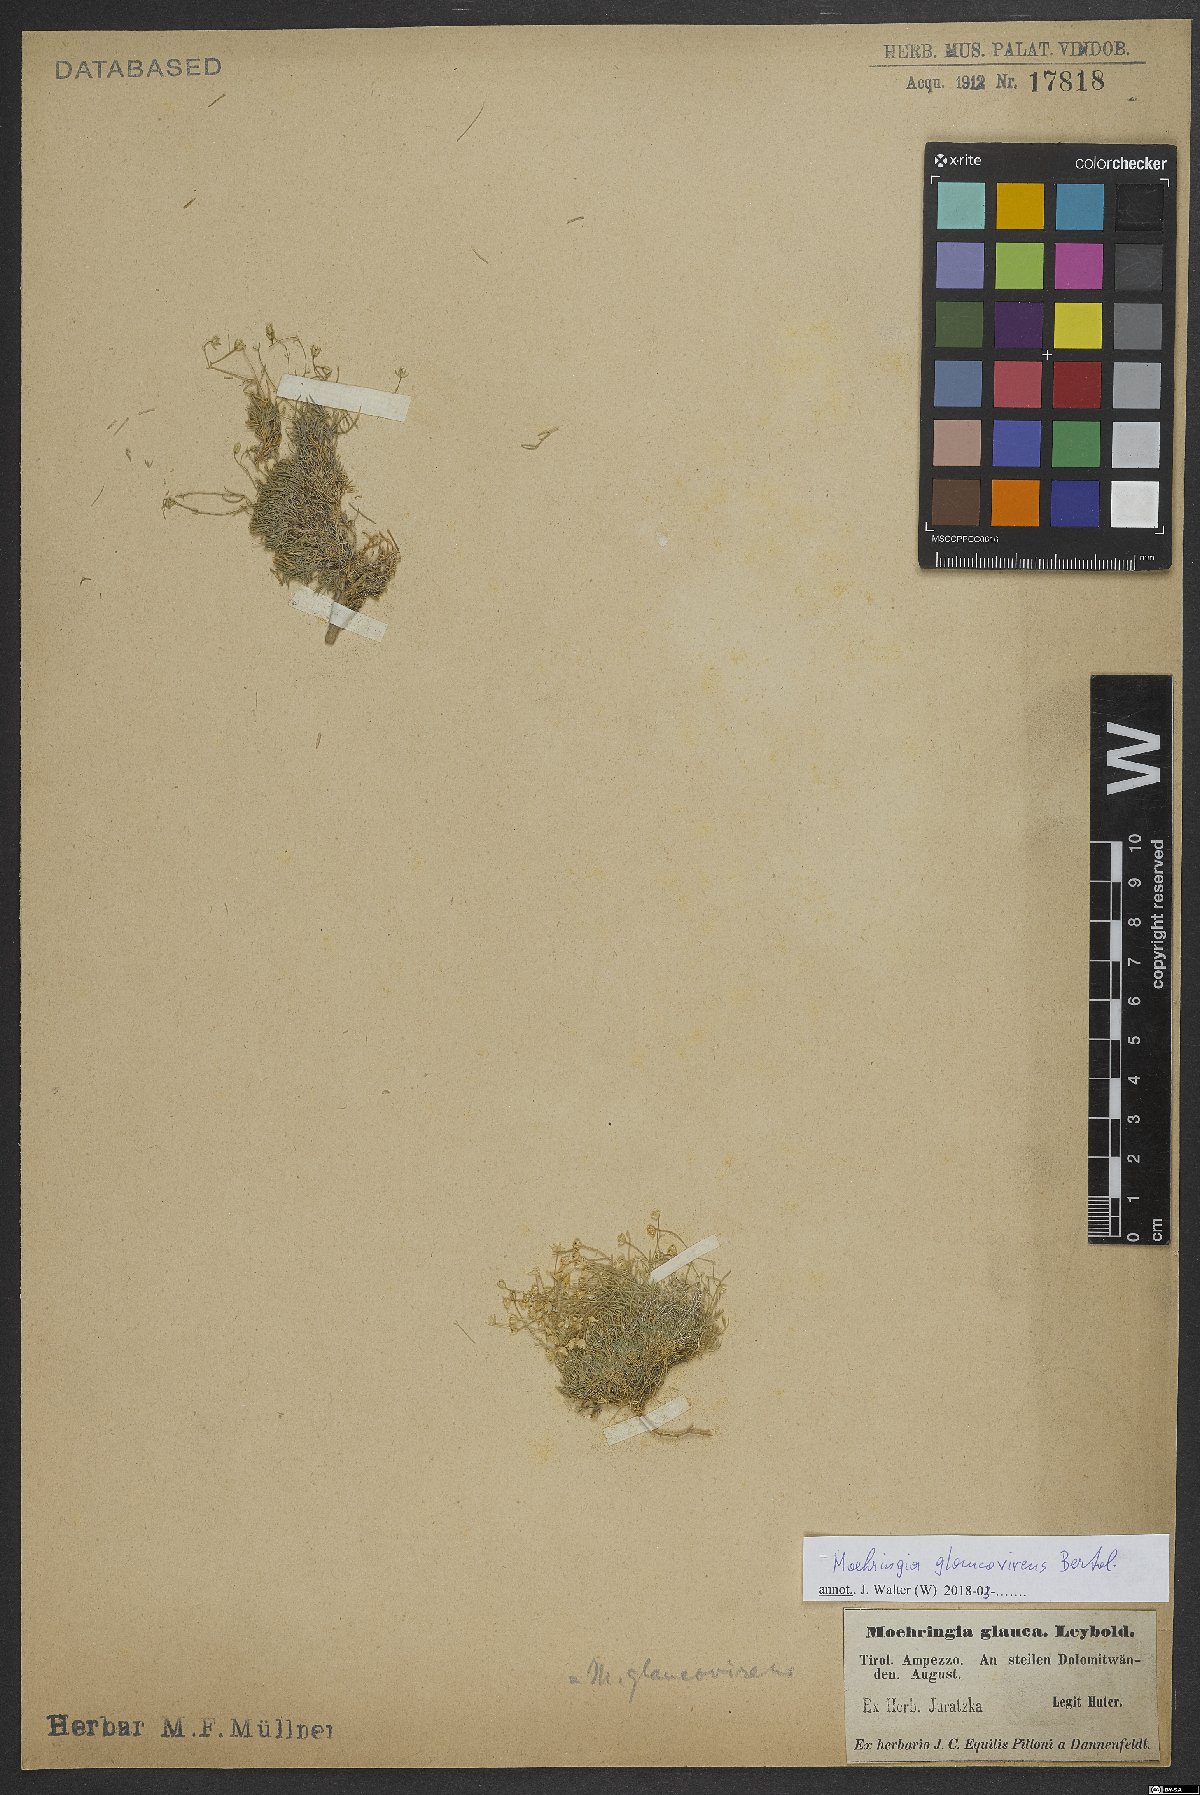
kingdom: Plantae
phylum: Tracheophyta
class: Magnoliopsida
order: Caryophyllales
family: Caryophyllaceae
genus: Moehringia
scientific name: Moehringia glaucovirens
